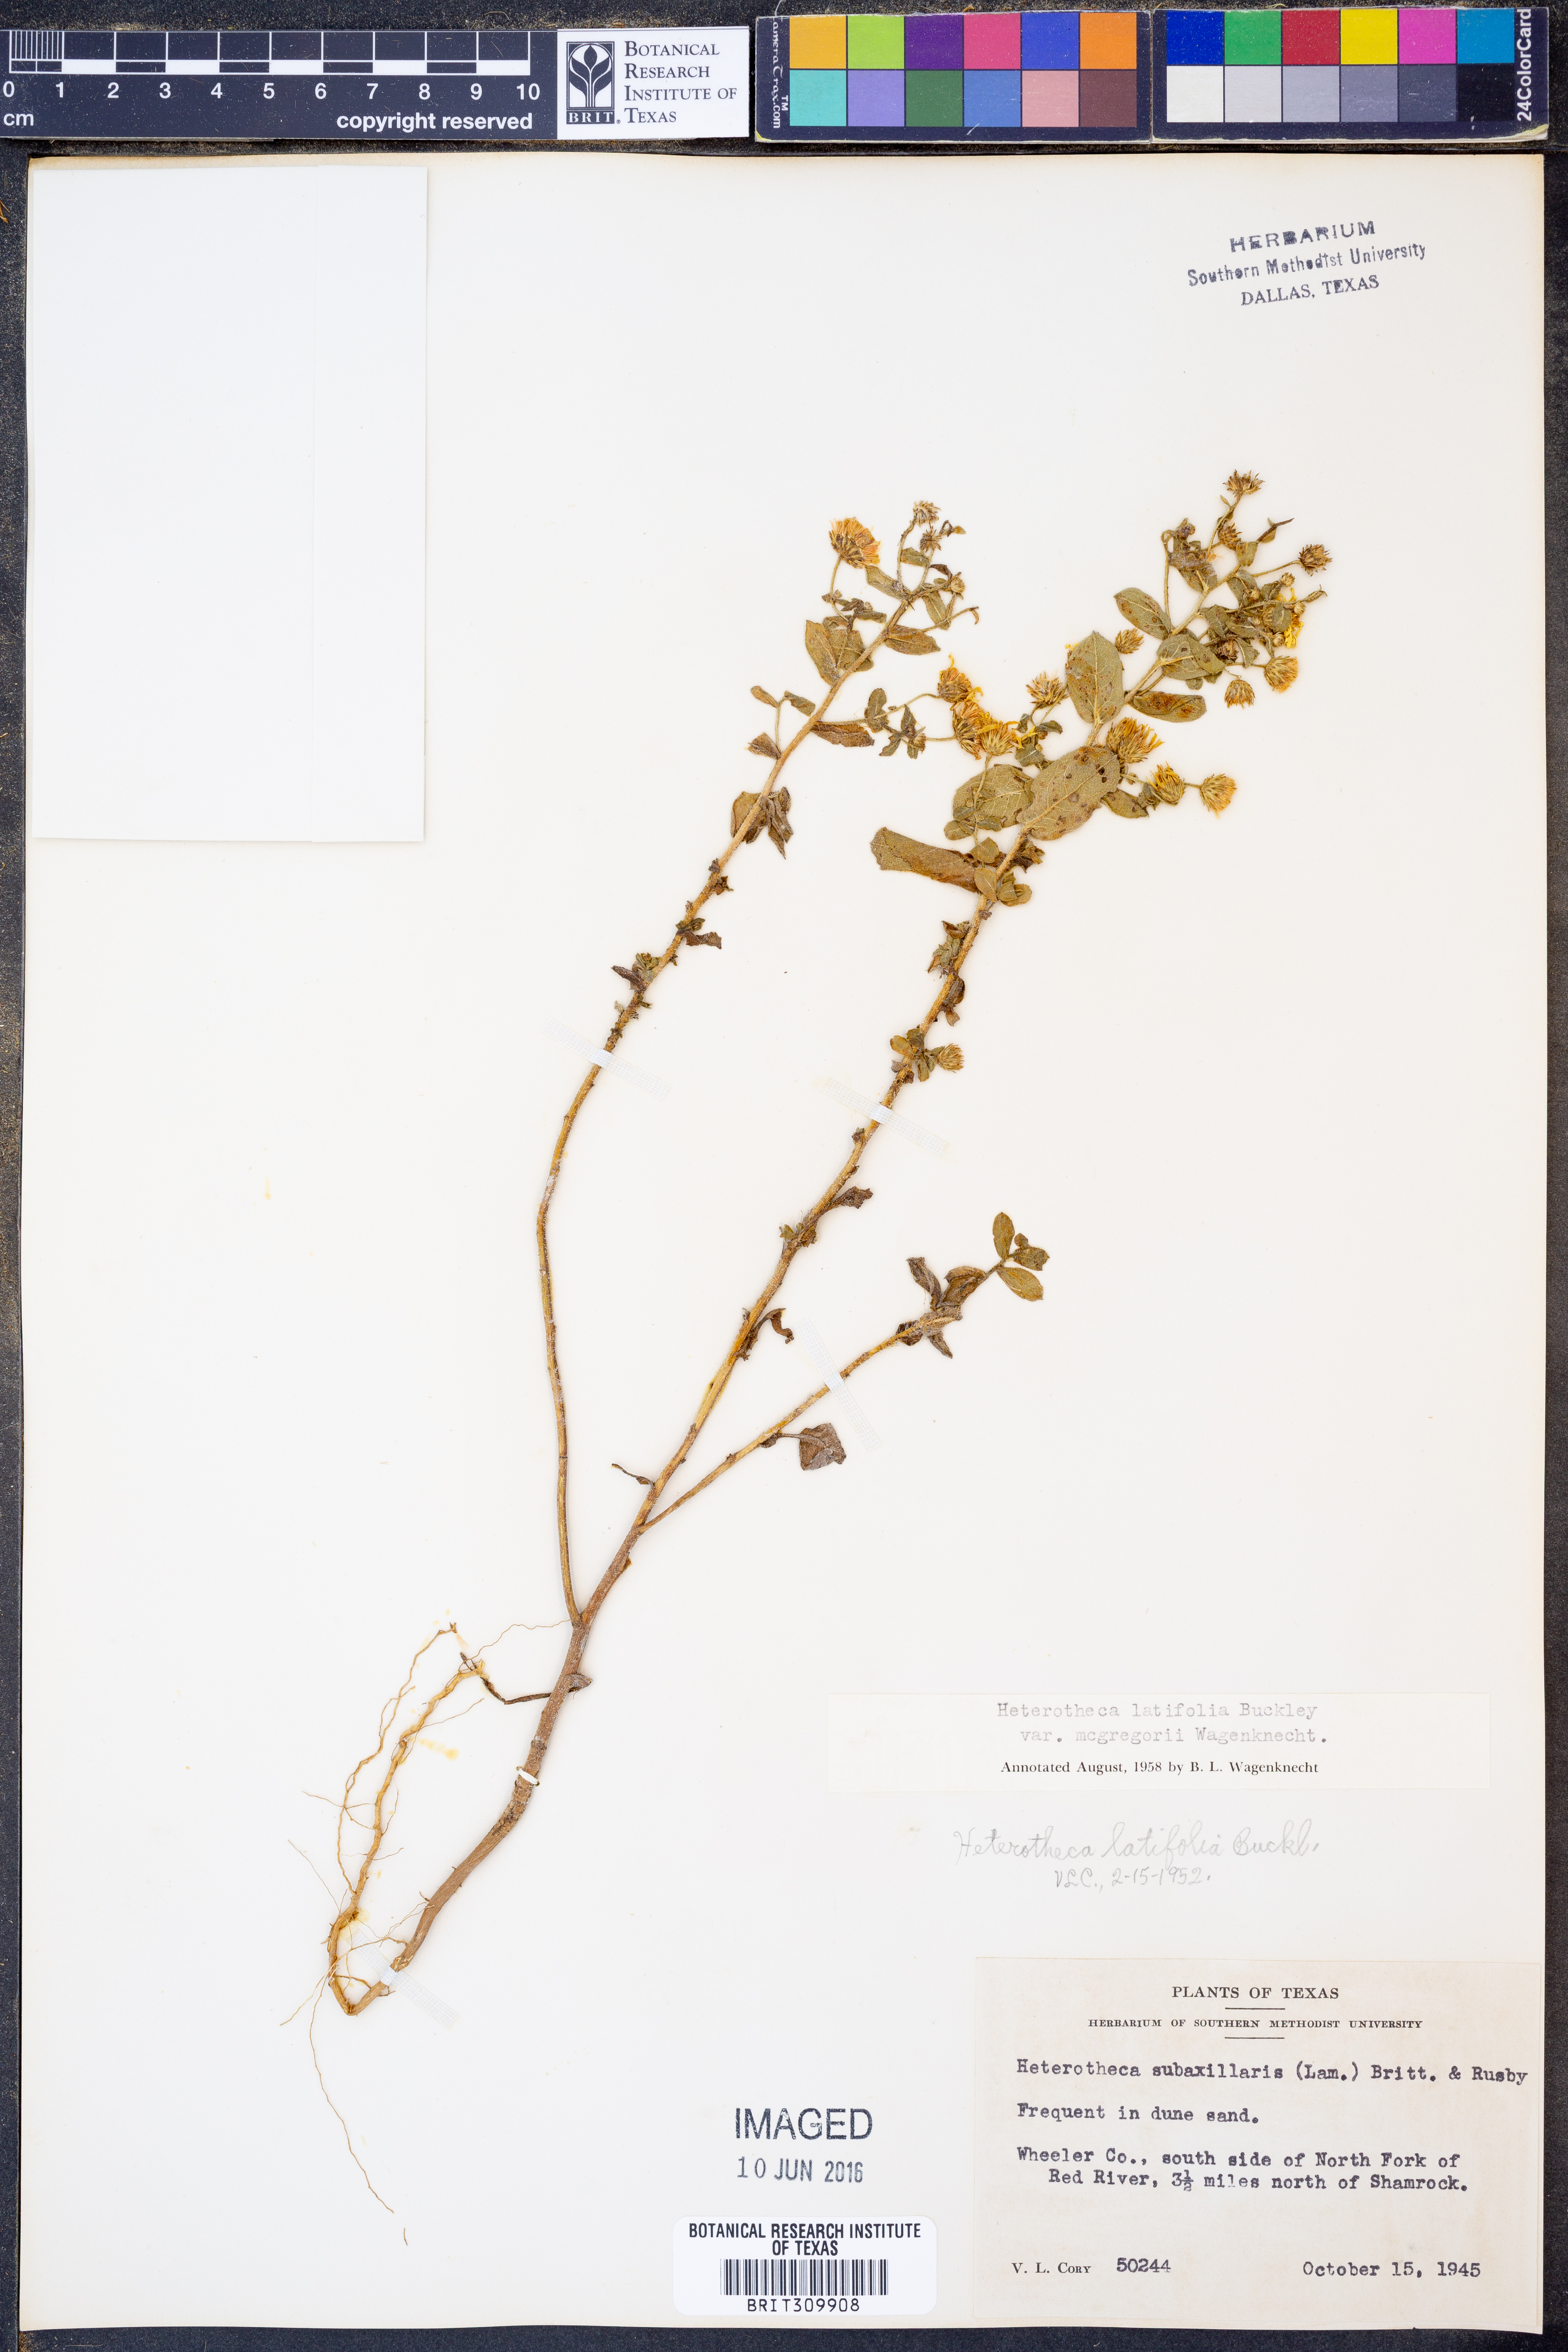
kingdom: Plantae
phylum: Tracheophyta
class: Magnoliopsida
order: Asterales
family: Asteraceae
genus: Heterotheca
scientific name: Heterotheca subaxillaris
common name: Camphorweed
